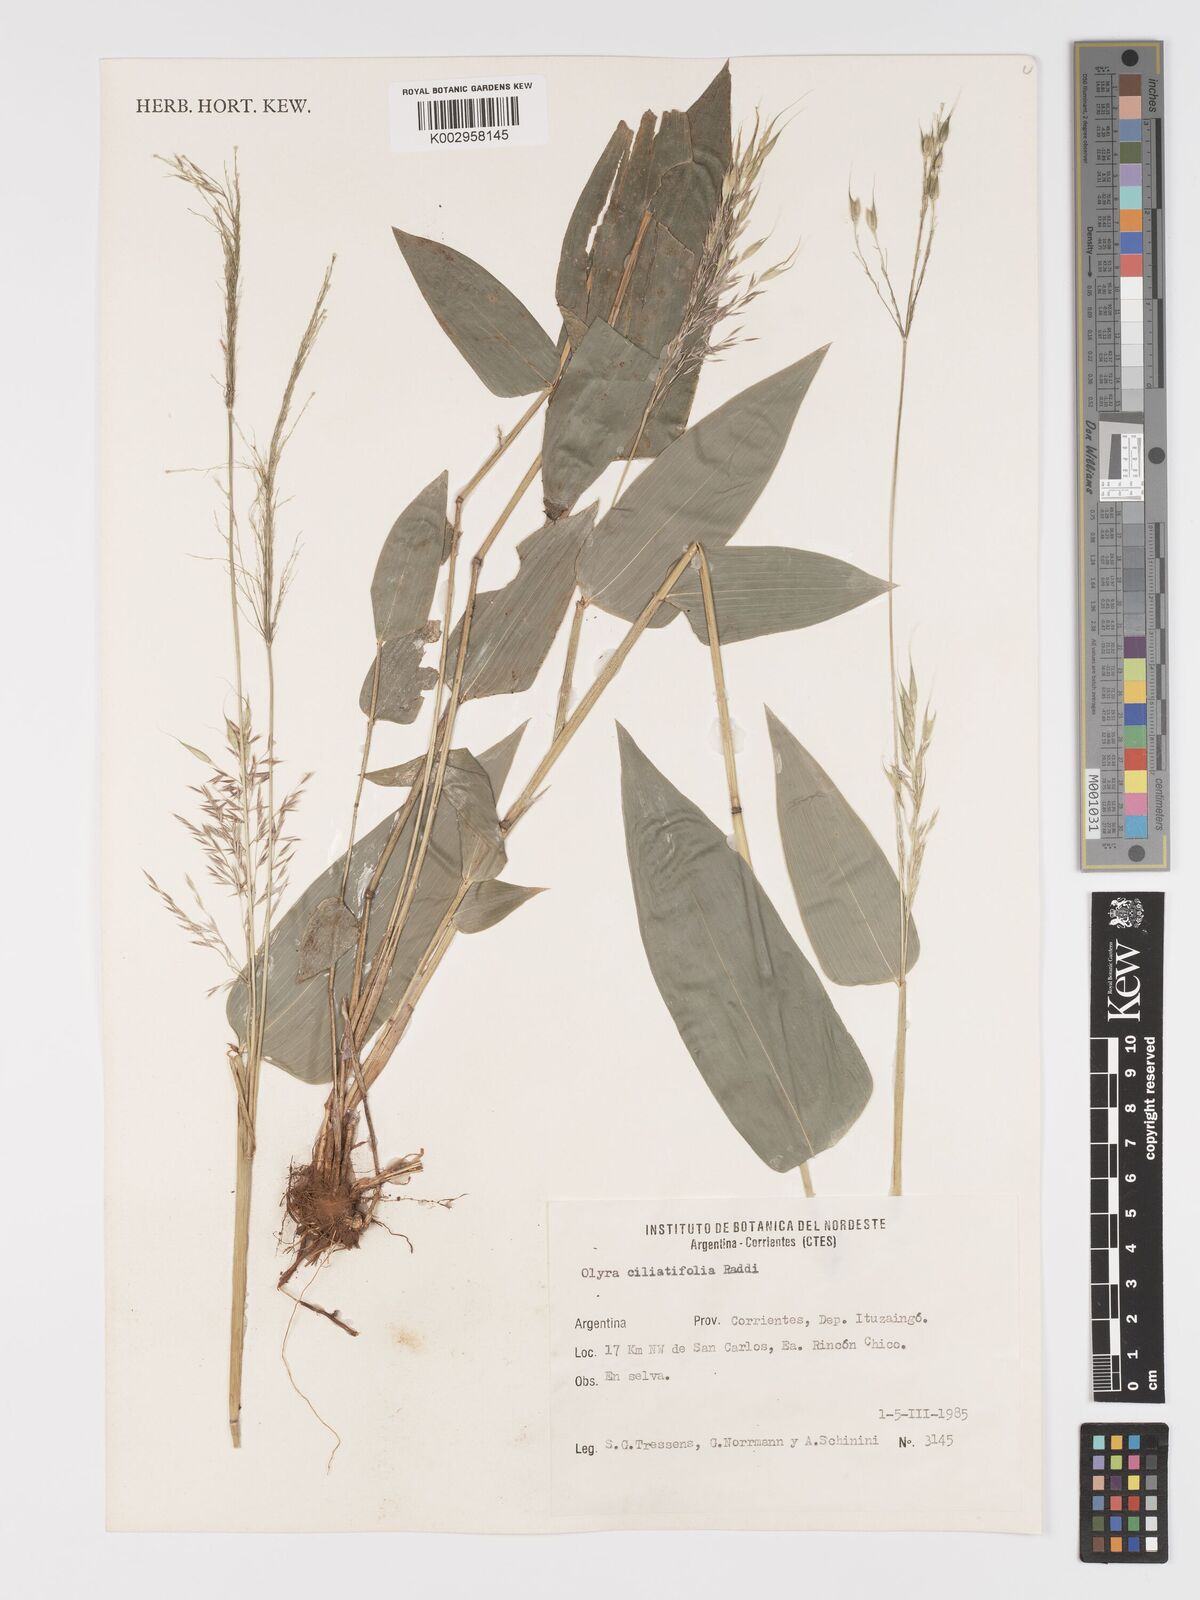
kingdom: Plantae
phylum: Tracheophyta
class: Liliopsida
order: Poales
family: Poaceae
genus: Olyra
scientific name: Olyra ciliatifolia
